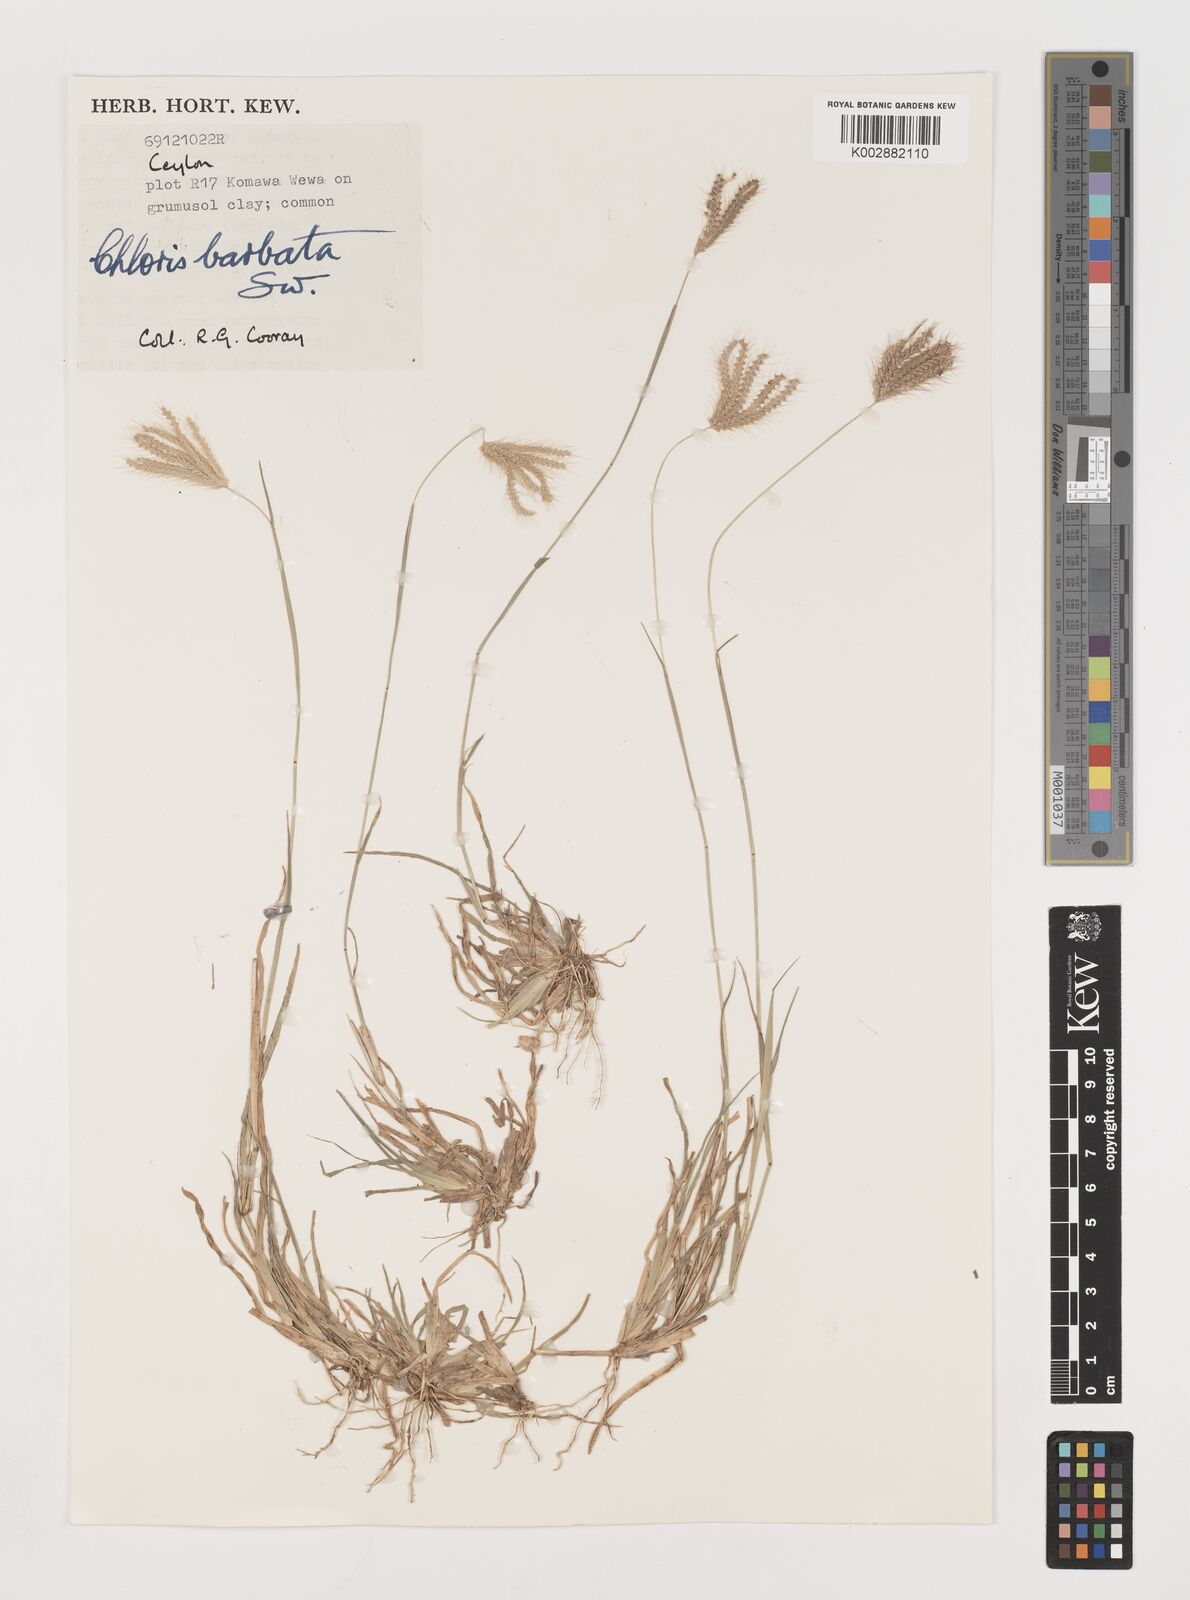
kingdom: Plantae
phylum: Tracheophyta
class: Liliopsida
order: Poales
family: Poaceae
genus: Chloris
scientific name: Chloris barbata
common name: Swollen fingergrass
